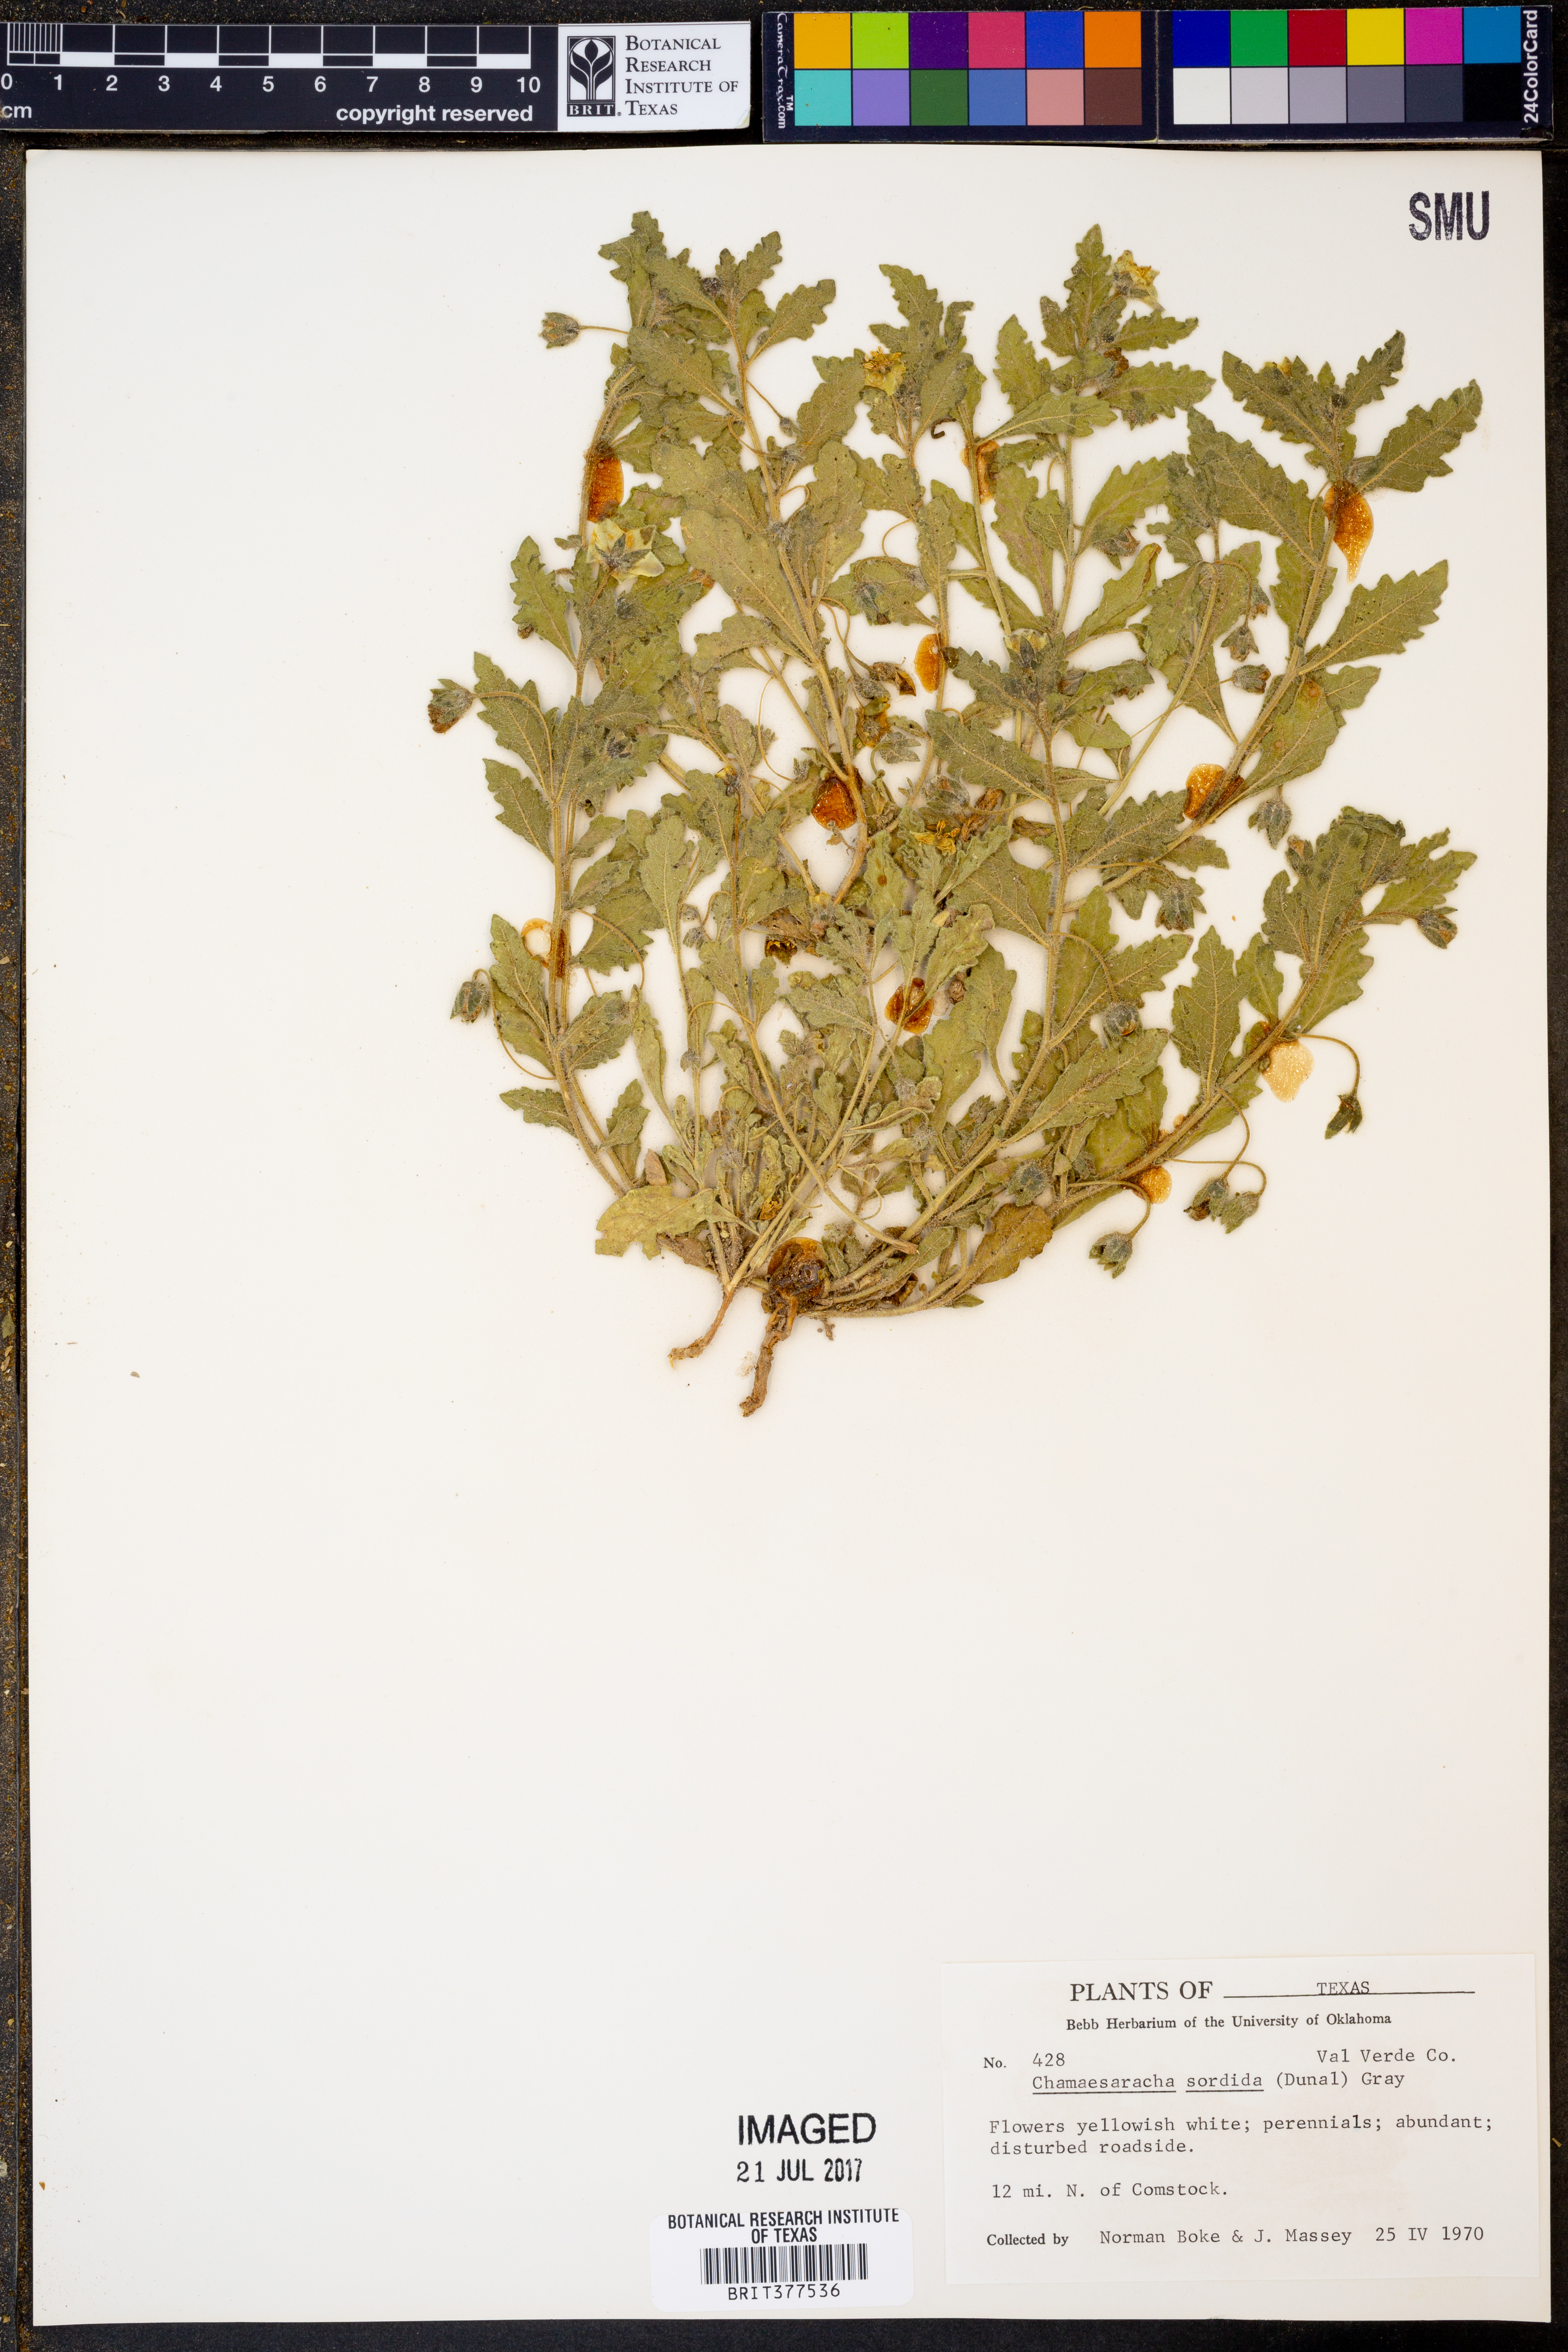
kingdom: Plantae
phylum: Tracheophyta
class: Magnoliopsida
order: Solanales
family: Solanaceae
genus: Chamaesaracha
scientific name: Chamaesaracha sordida
